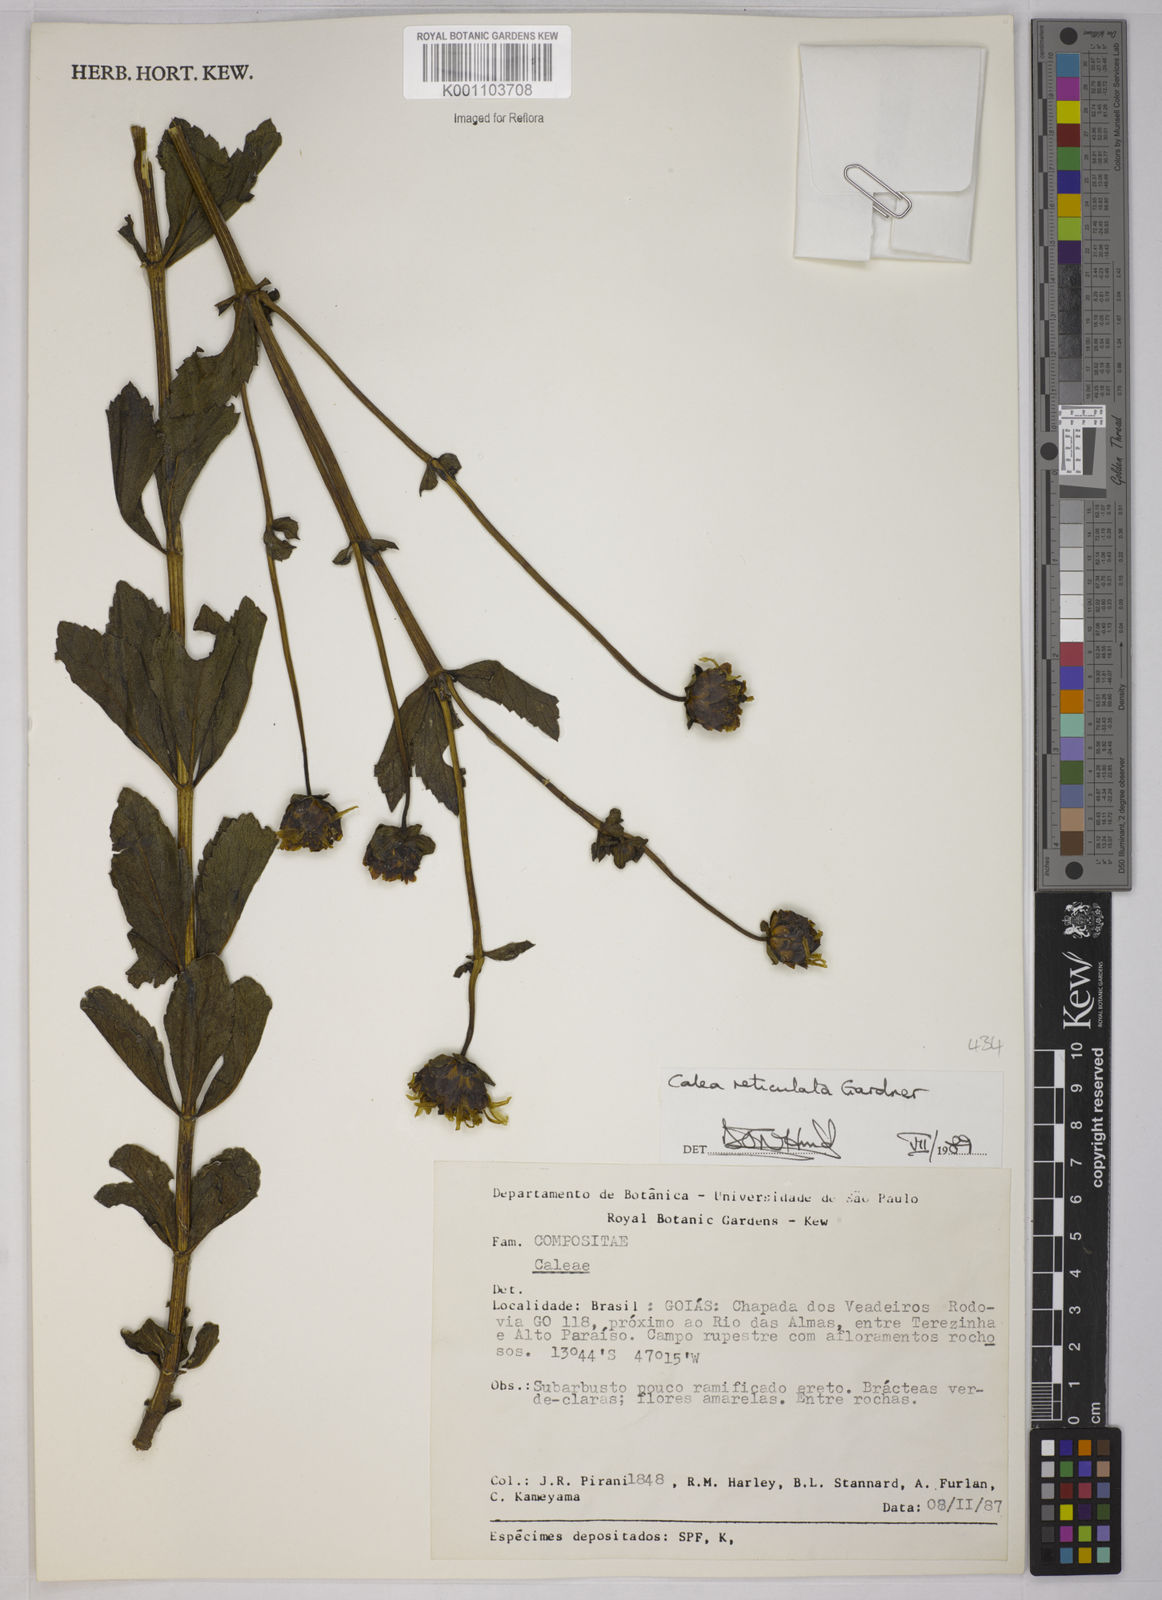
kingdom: Plantae
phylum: Tracheophyta
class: Magnoliopsida
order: Asterales
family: Asteraceae
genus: Calea
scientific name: Calea reticulata
